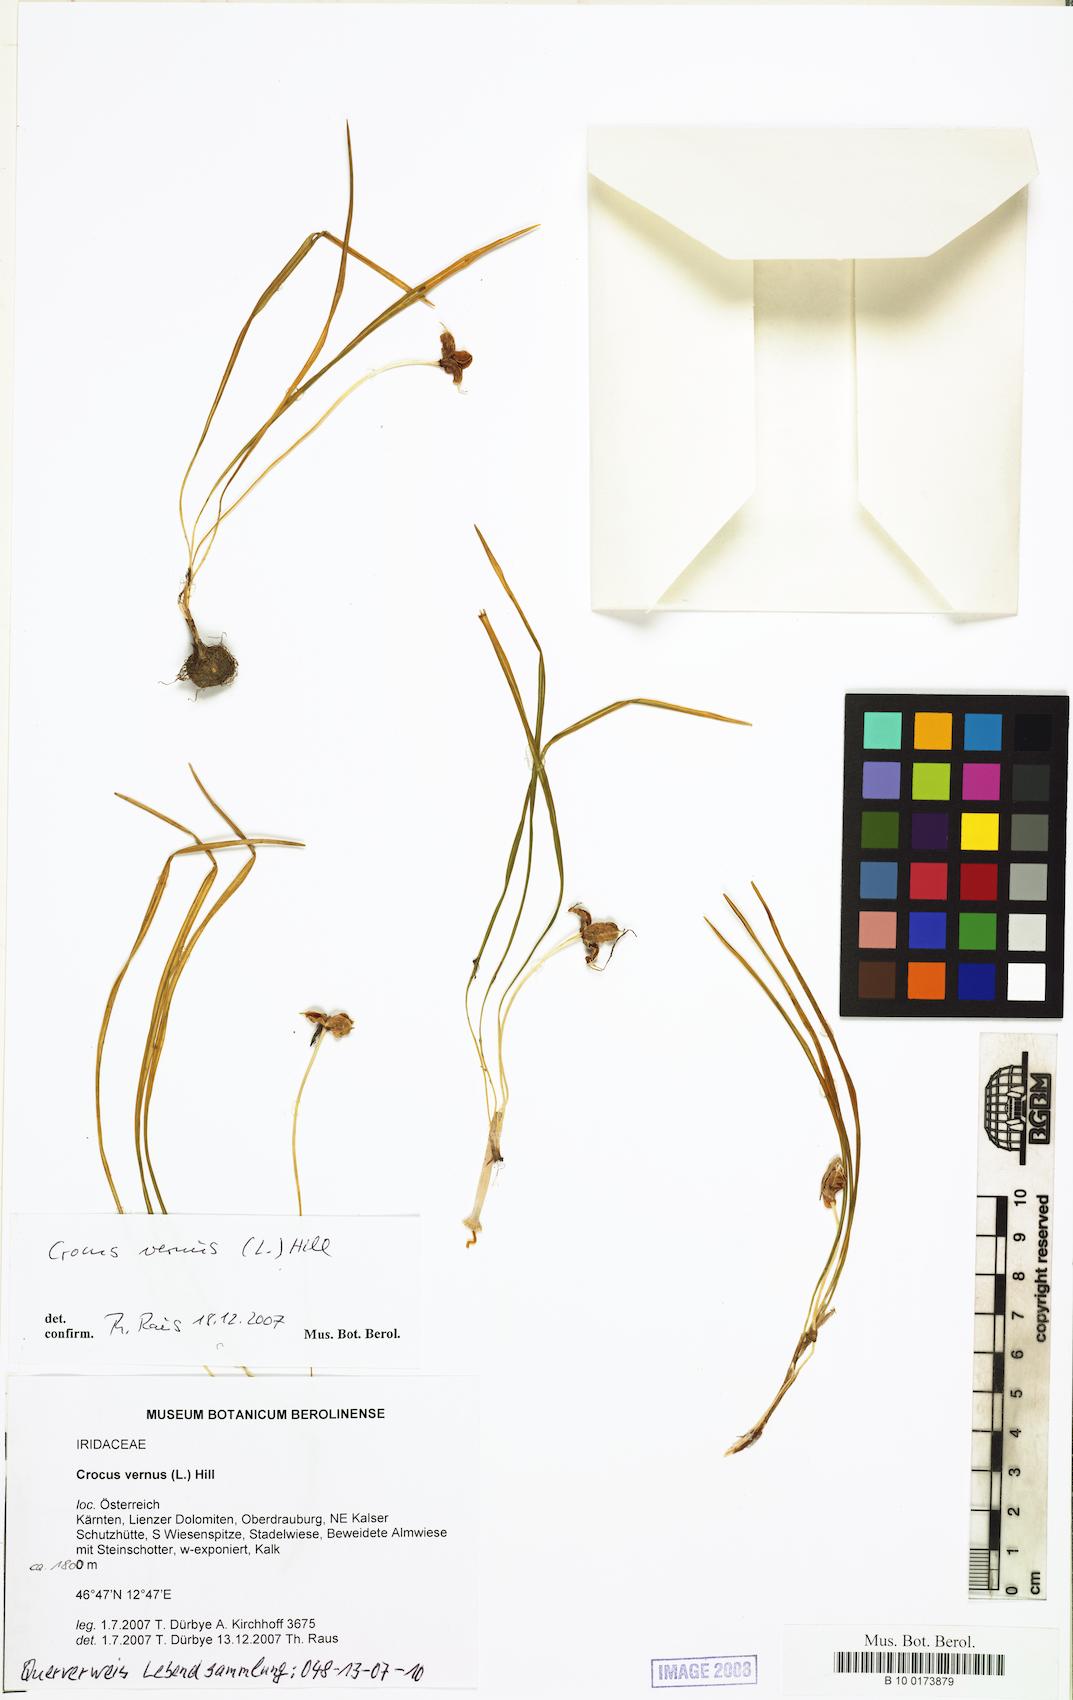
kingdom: Plantae
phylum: Tracheophyta
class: Liliopsida
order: Asparagales
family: Iridaceae
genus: Crocus
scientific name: Crocus vernus
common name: Spring crocus
